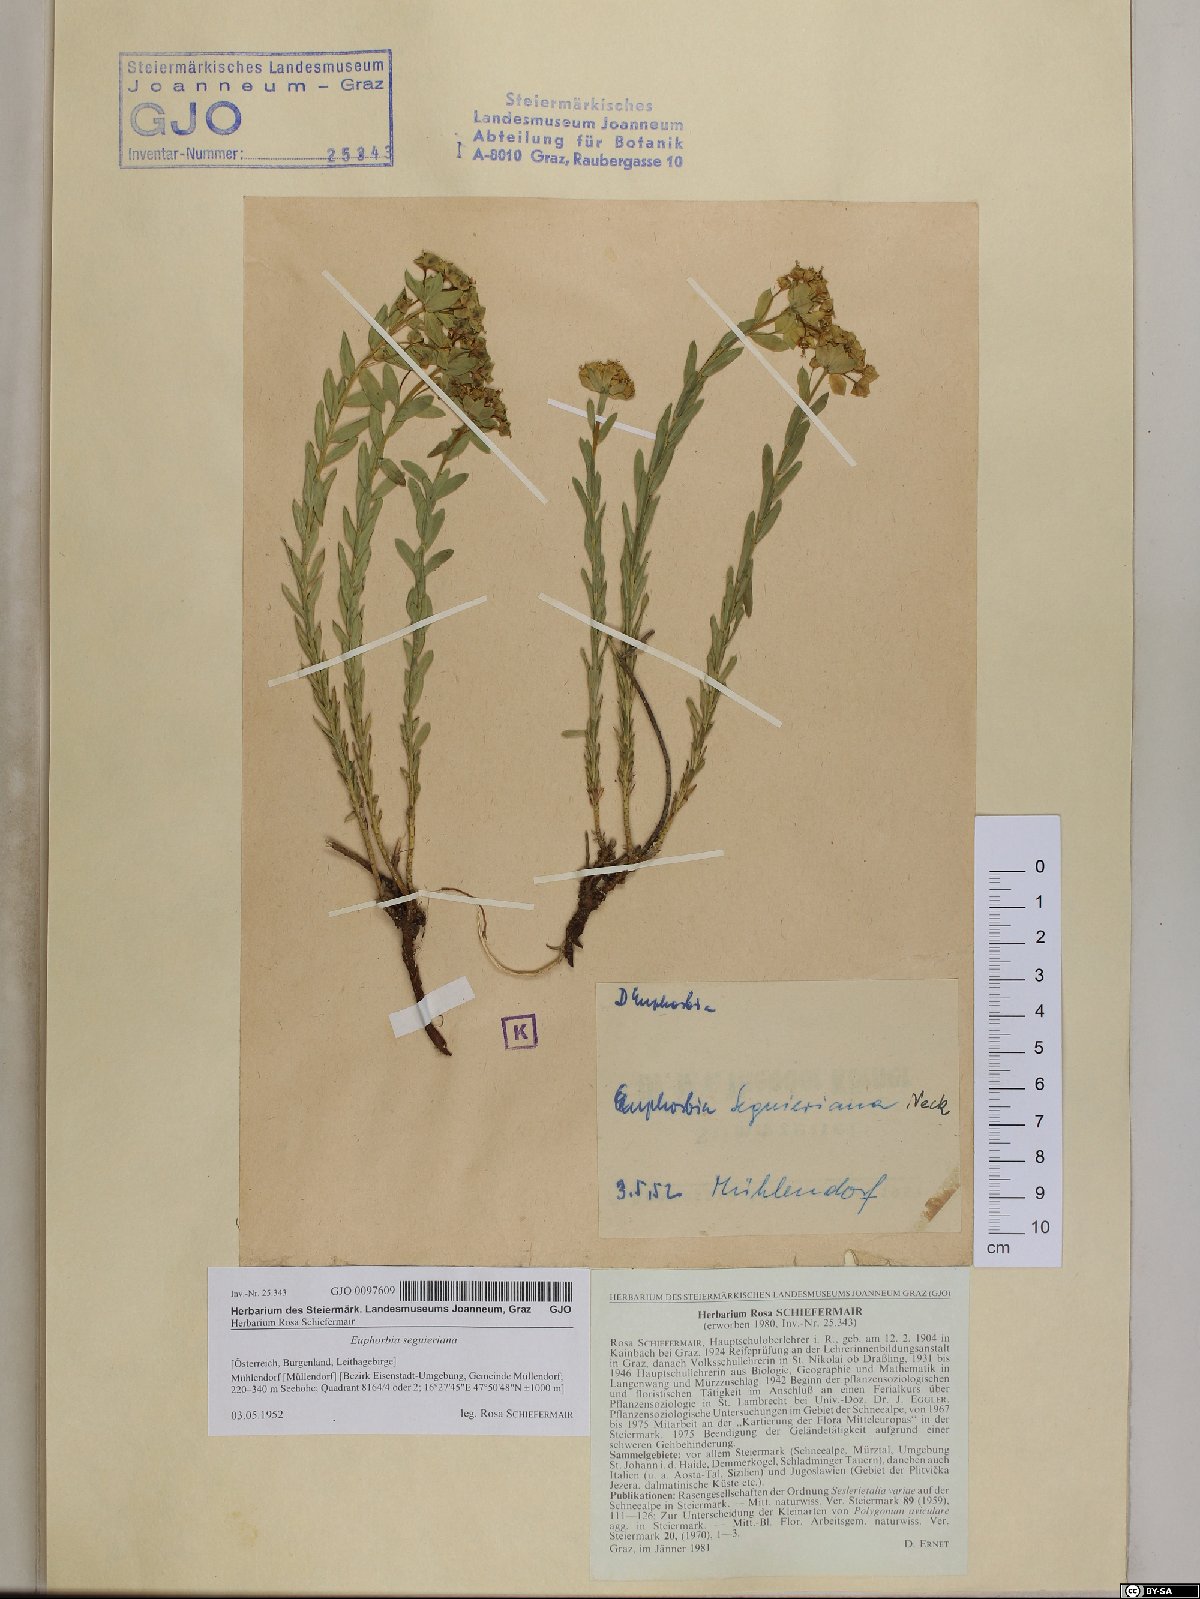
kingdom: Plantae
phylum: Tracheophyta
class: Magnoliopsida
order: Malpighiales
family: Euphorbiaceae
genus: Euphorbia
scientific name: Euphorbia seguieriana
